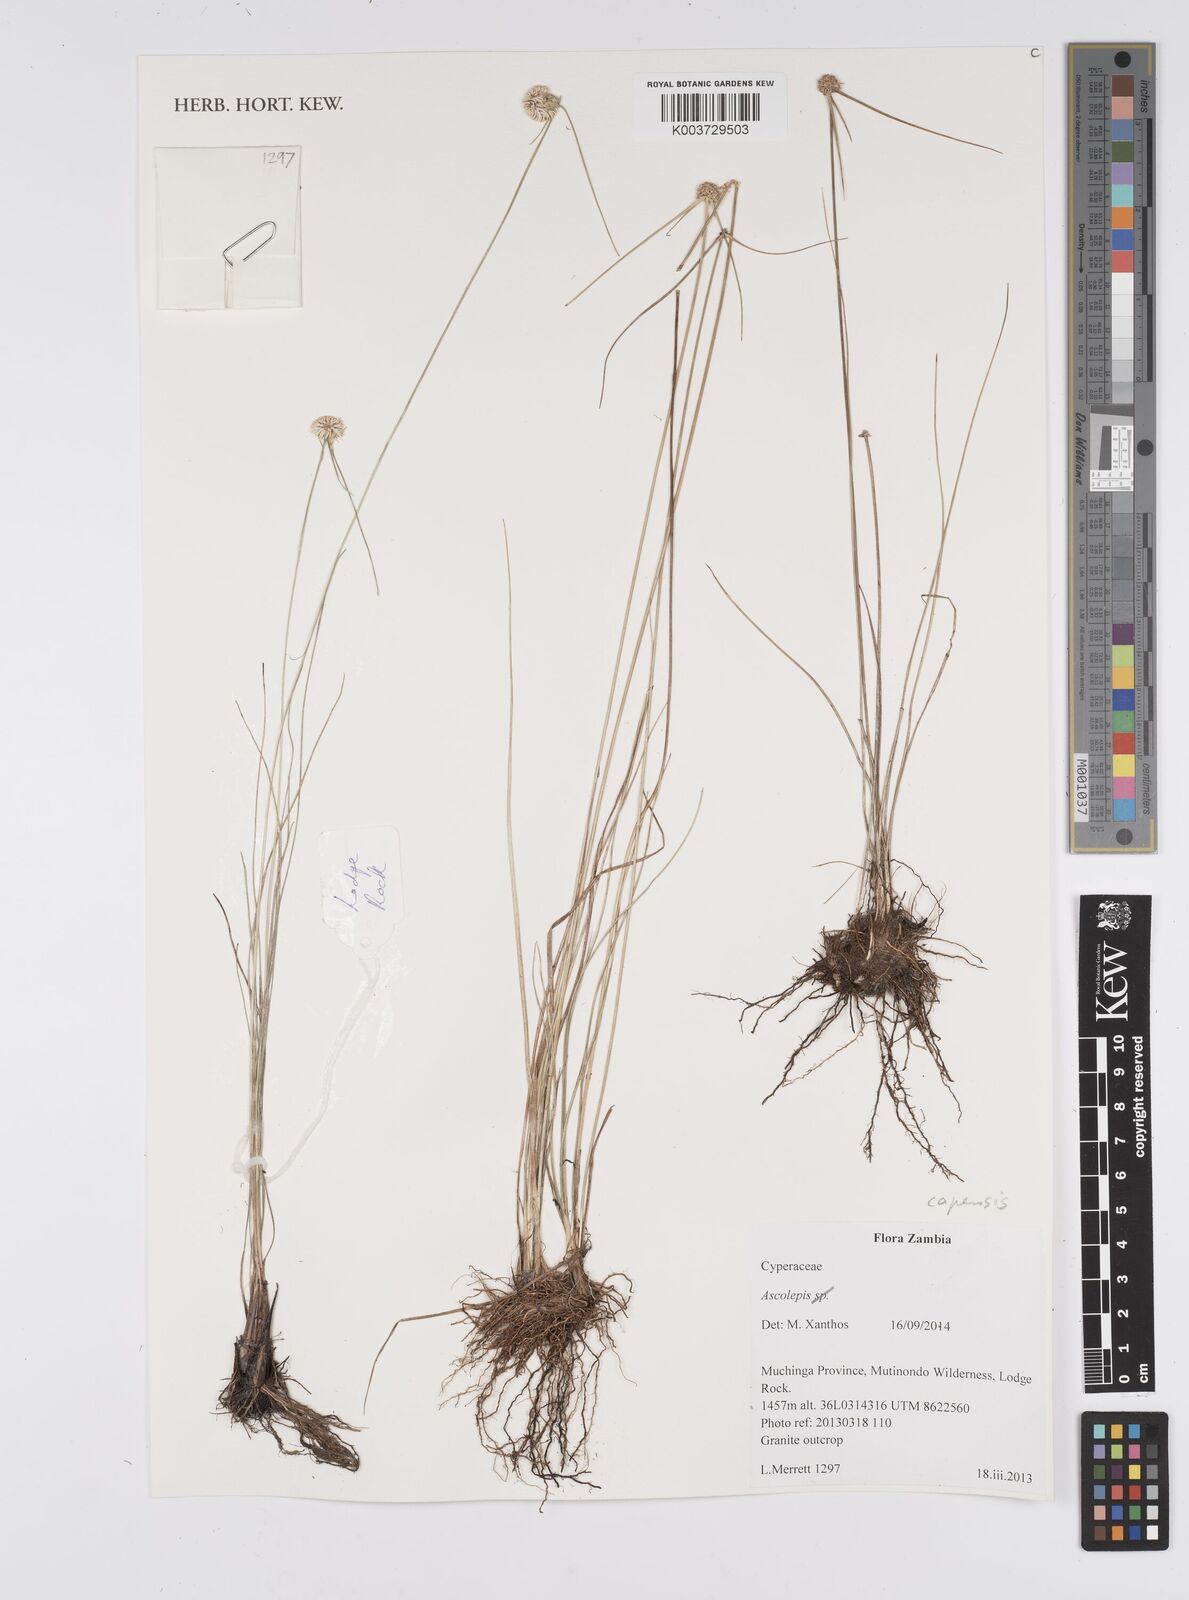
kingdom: Plantae
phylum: Tracheophyta
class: Liliopsida
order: Poales
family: Cyperaceae
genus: Cyperus
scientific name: Cyperus
